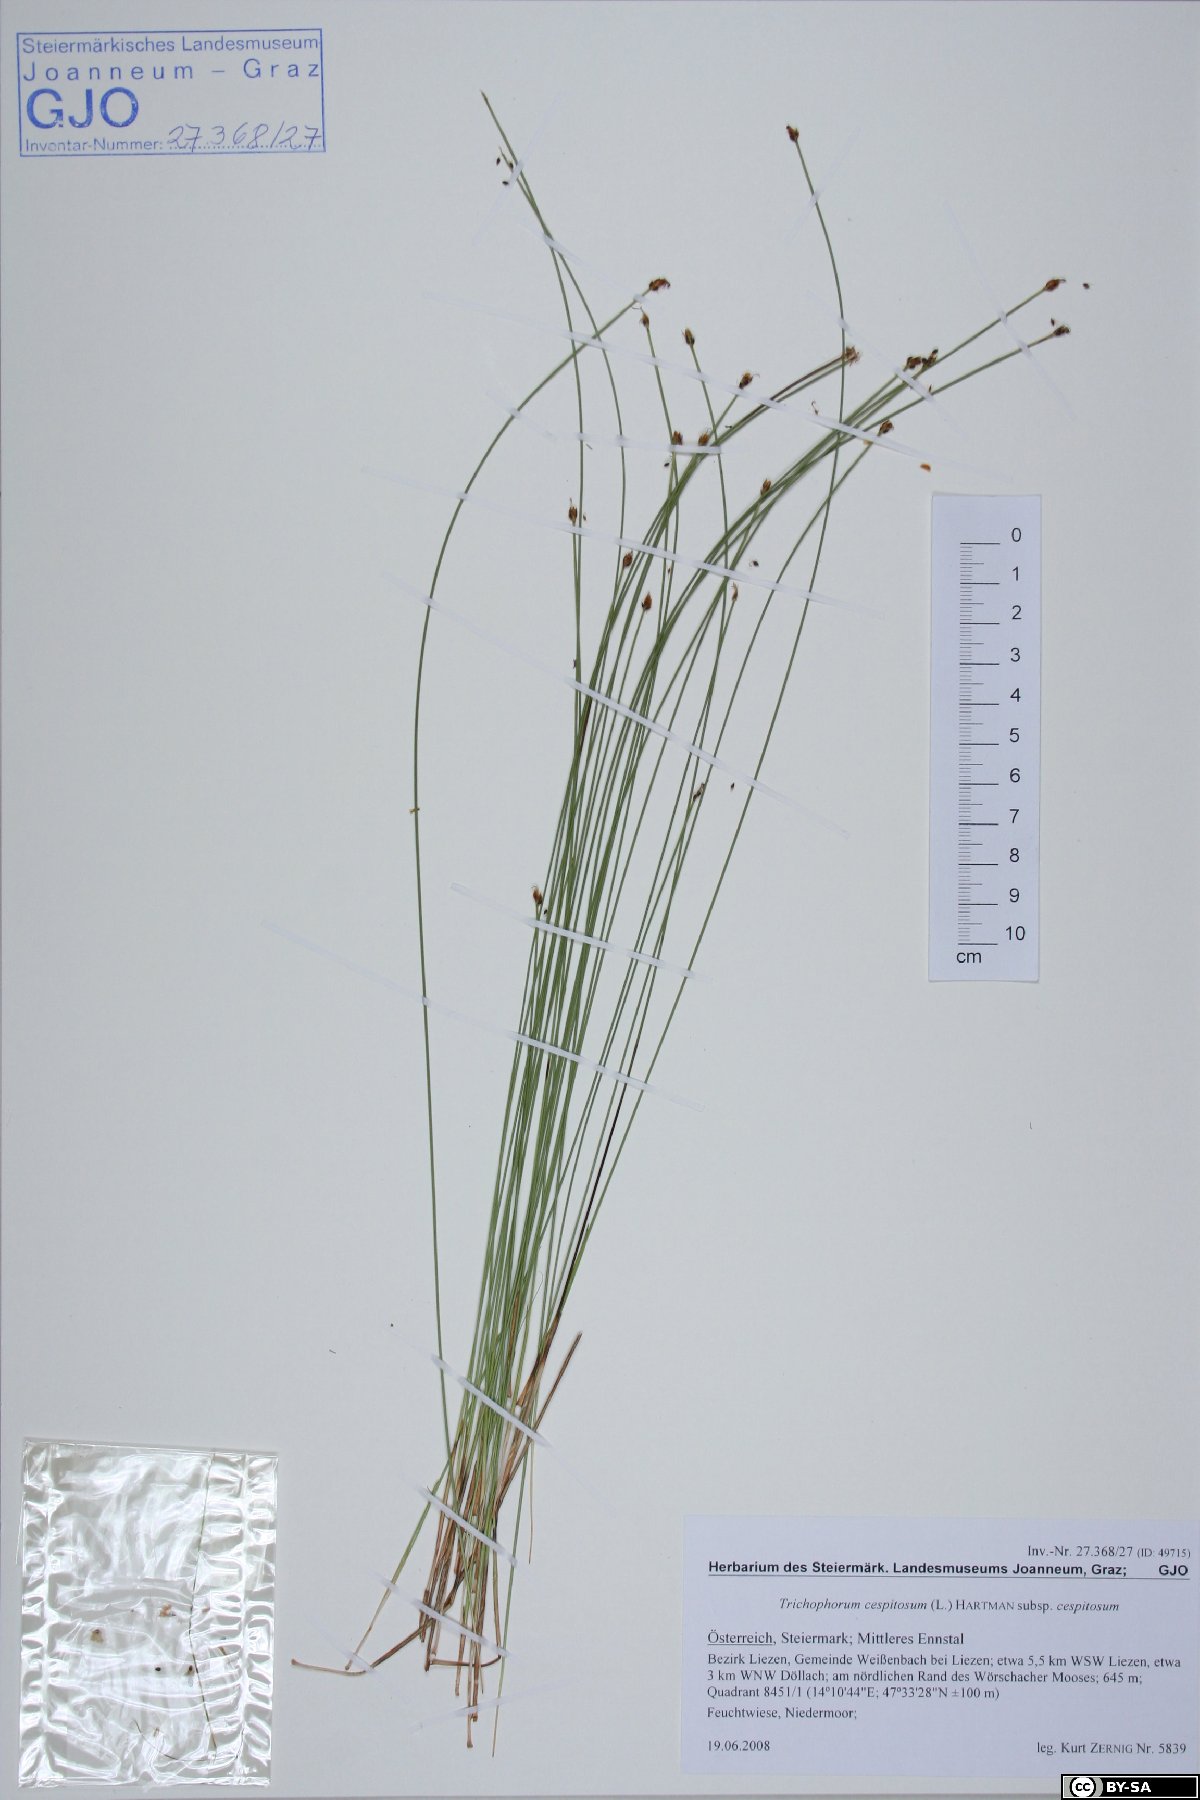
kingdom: Plantae
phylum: Tracheophyta
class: Liliopsida
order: Poales
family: Cyperaceae
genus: Trichophorum
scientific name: Trichophorum cespitosum
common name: Cespitose bulrush
